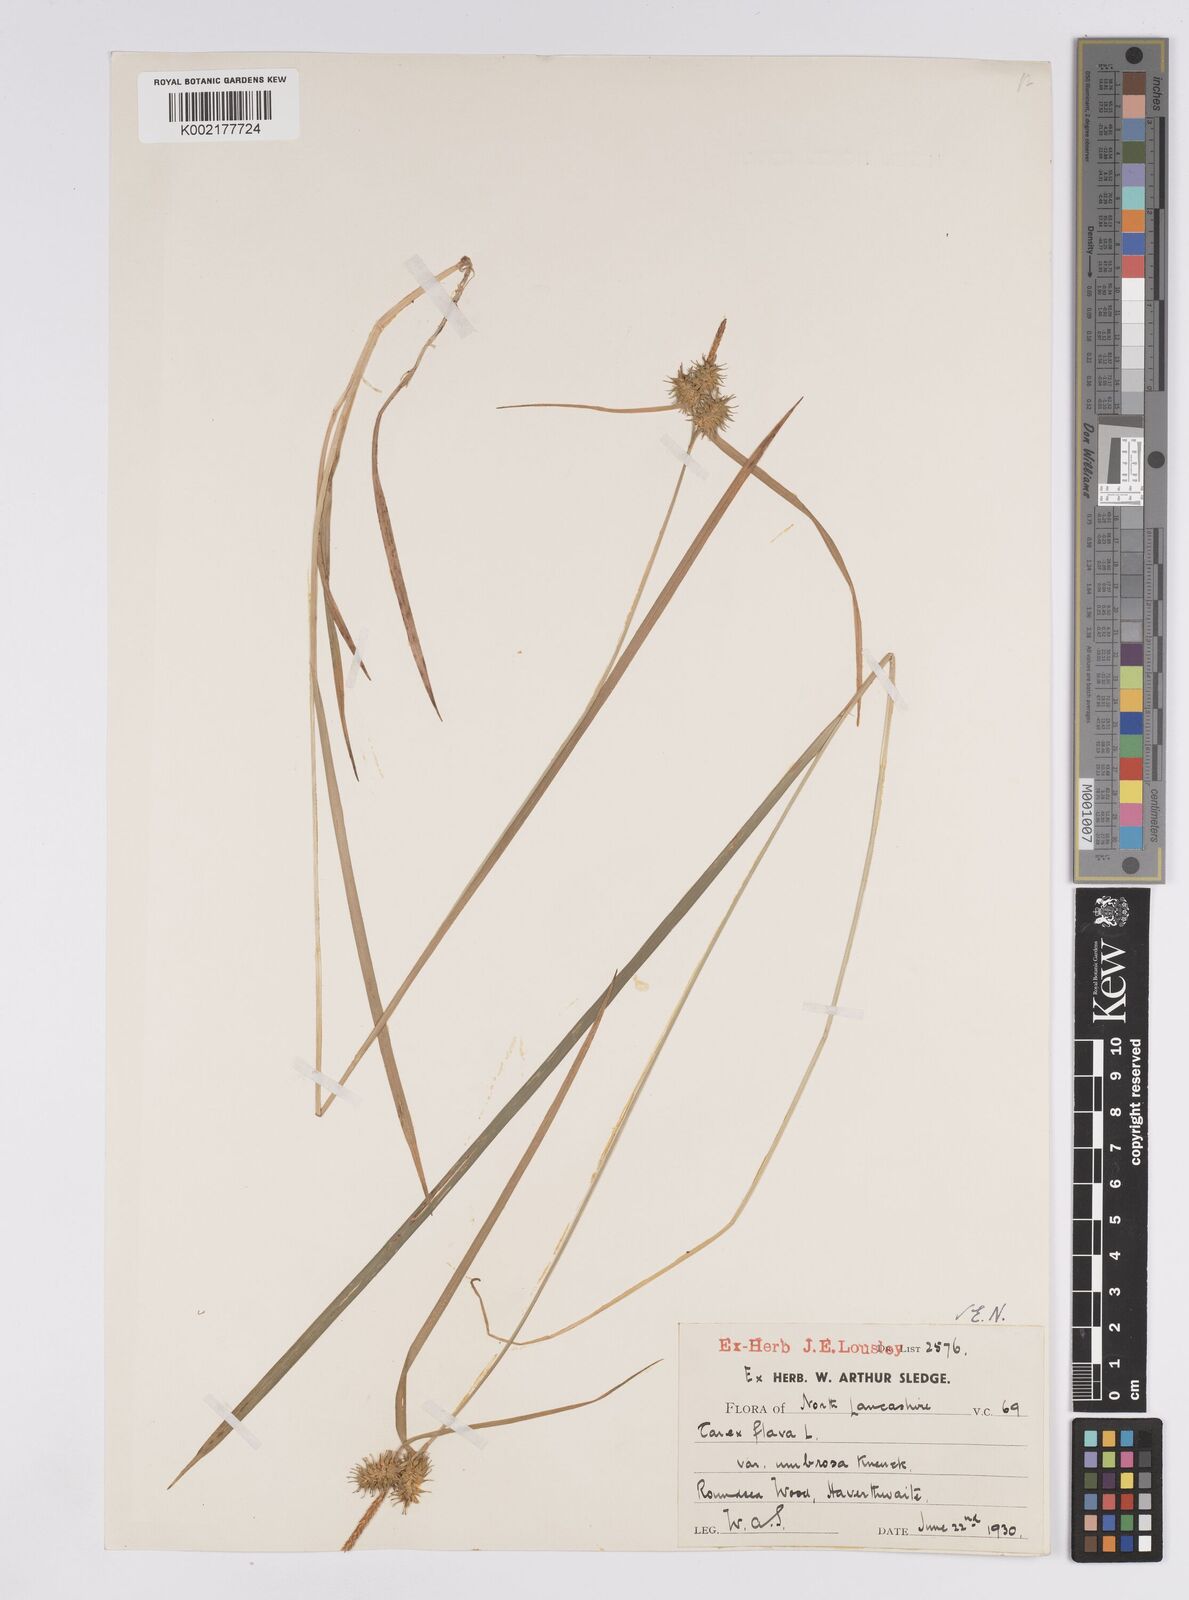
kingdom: Plantae
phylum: Tracheophyta
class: Liliopsida
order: Poales
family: Cyperaceae
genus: Carex
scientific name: Carex flava
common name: Large yellow-sedge
